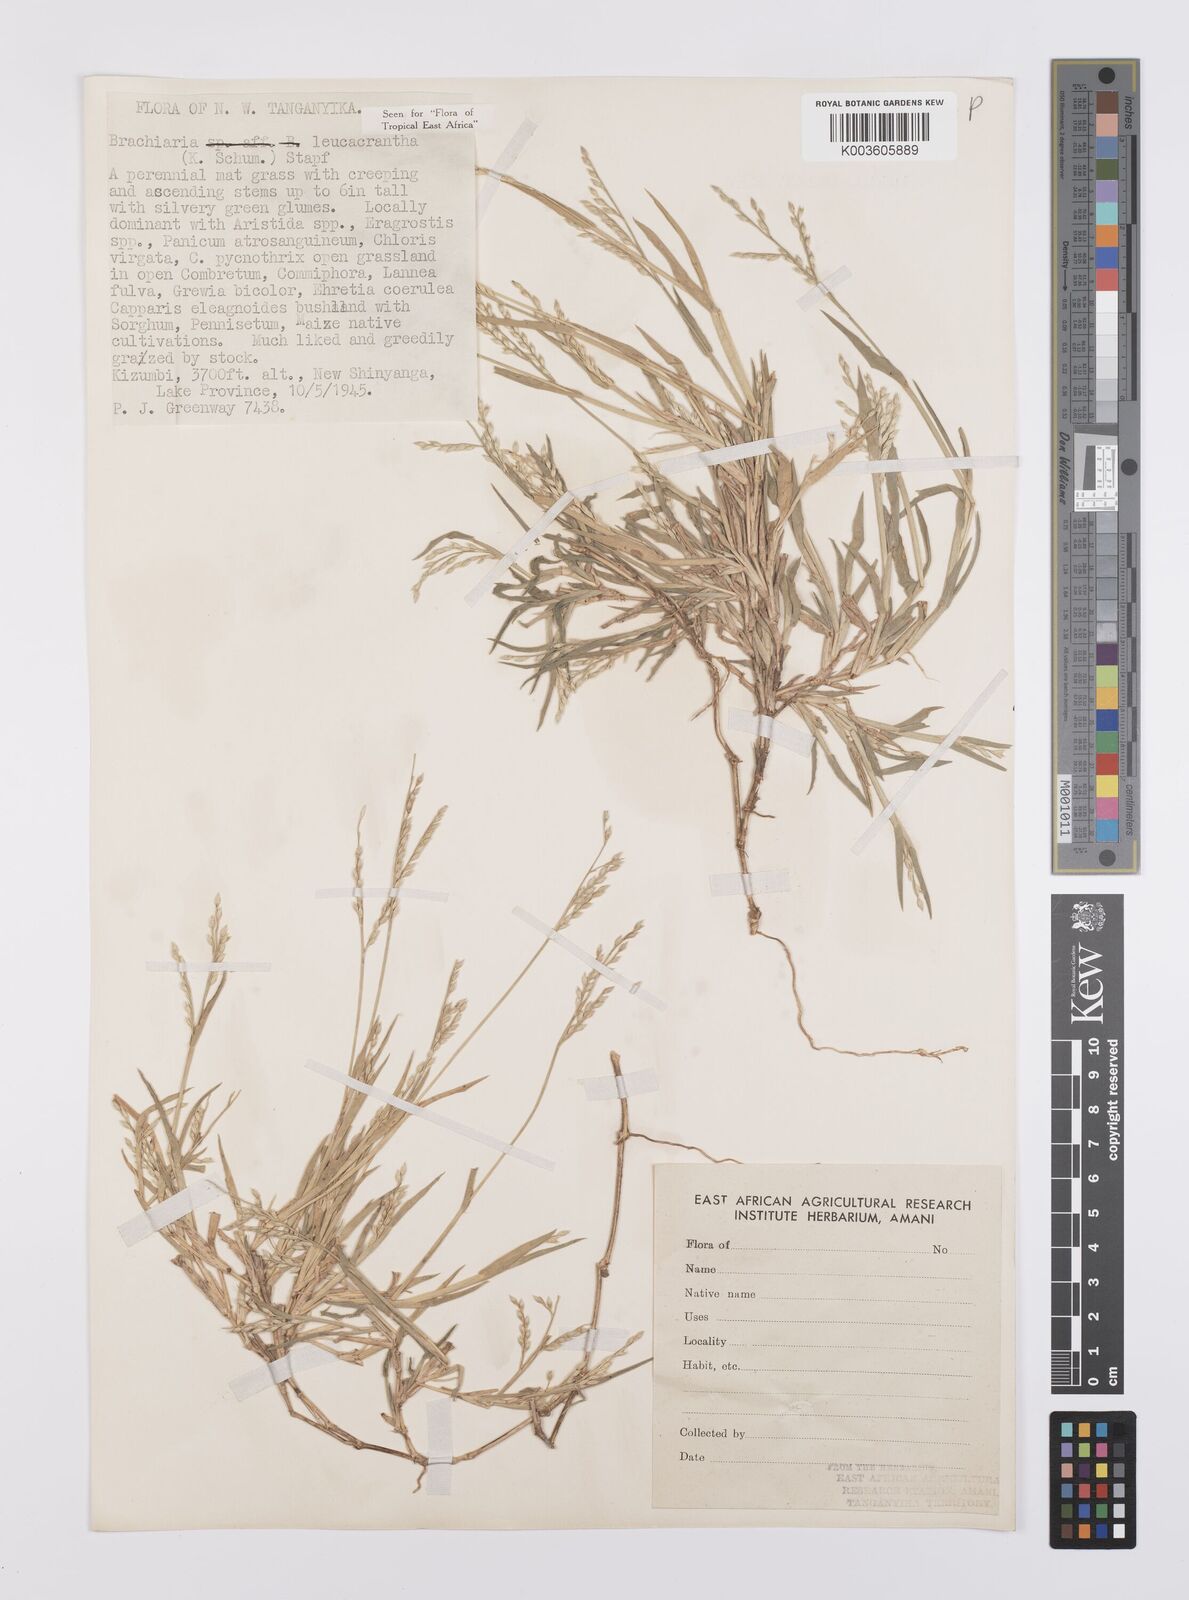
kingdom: Plantae
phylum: Tracheophyta
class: Liliopsida
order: Poales
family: Poaceae
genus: Urochloa
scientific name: Urochloa xantholeuca
